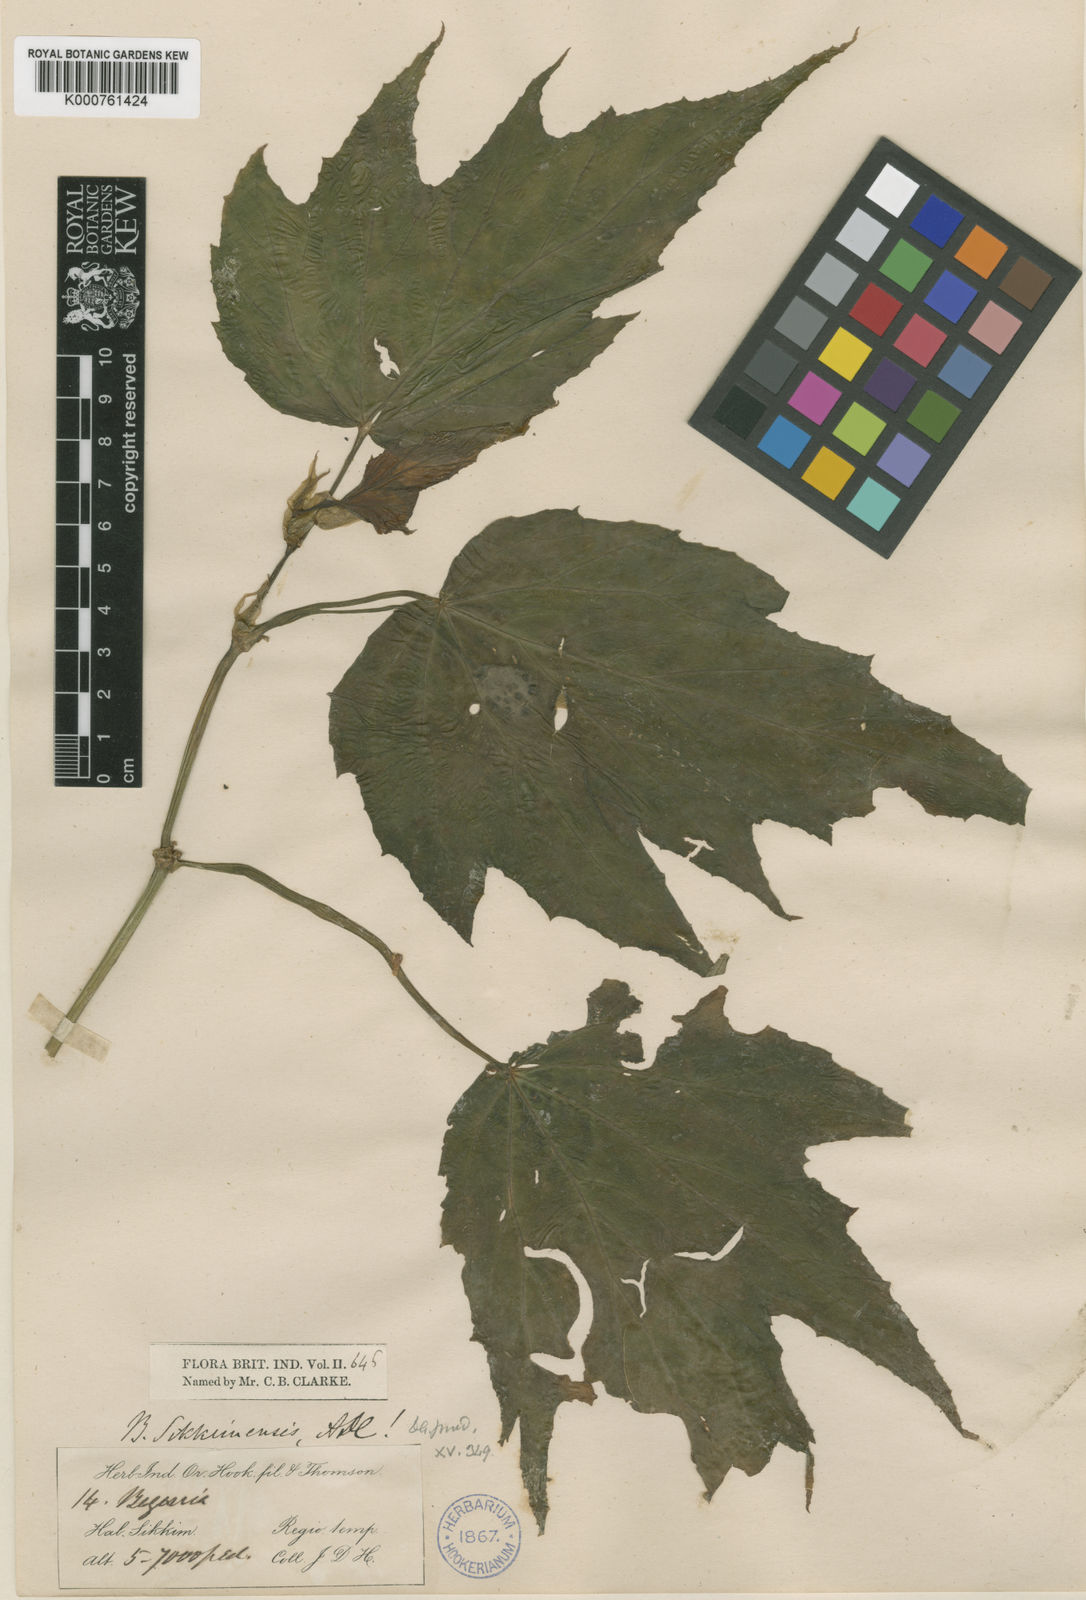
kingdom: Plantae
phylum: Tracheophyta
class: Magnoliopsida
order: Cucurbitales
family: Begoniaceae
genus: Begonia
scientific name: Begonia sikkimensis
